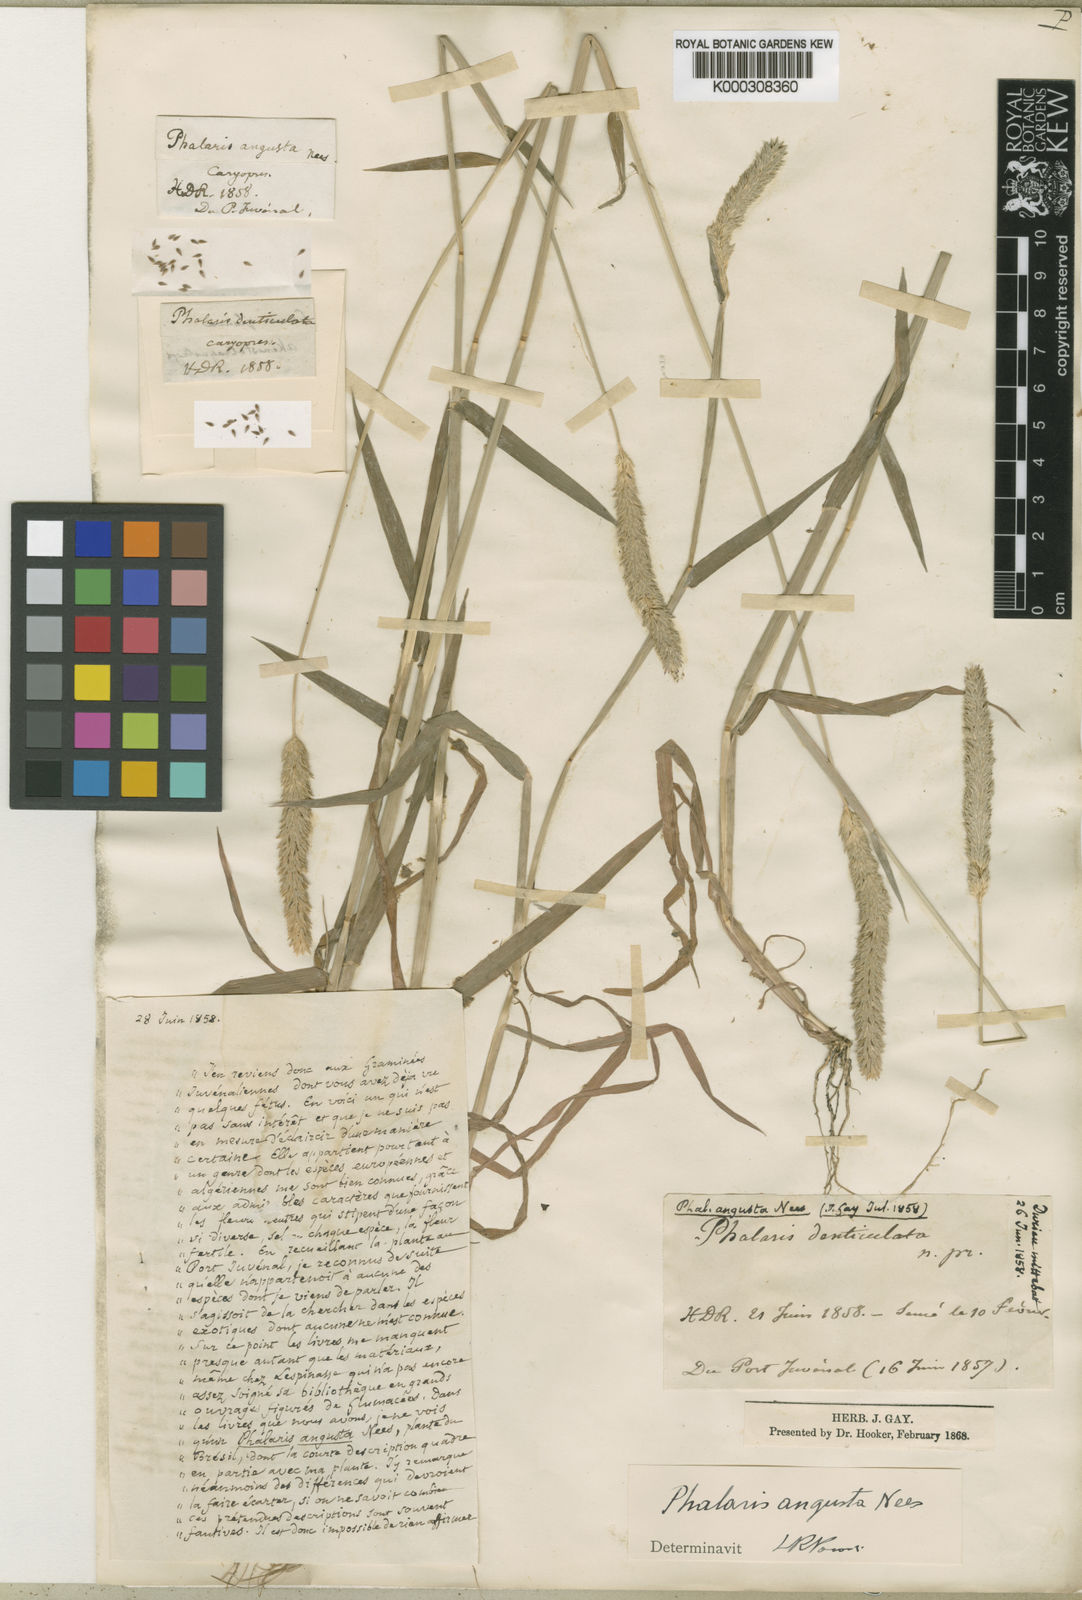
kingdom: Plantae
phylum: Tracheophyta
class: Liliopsida
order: Poales
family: Poaceae
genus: Phalaris
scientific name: Phalaris angusta
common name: Narrow canary grass
